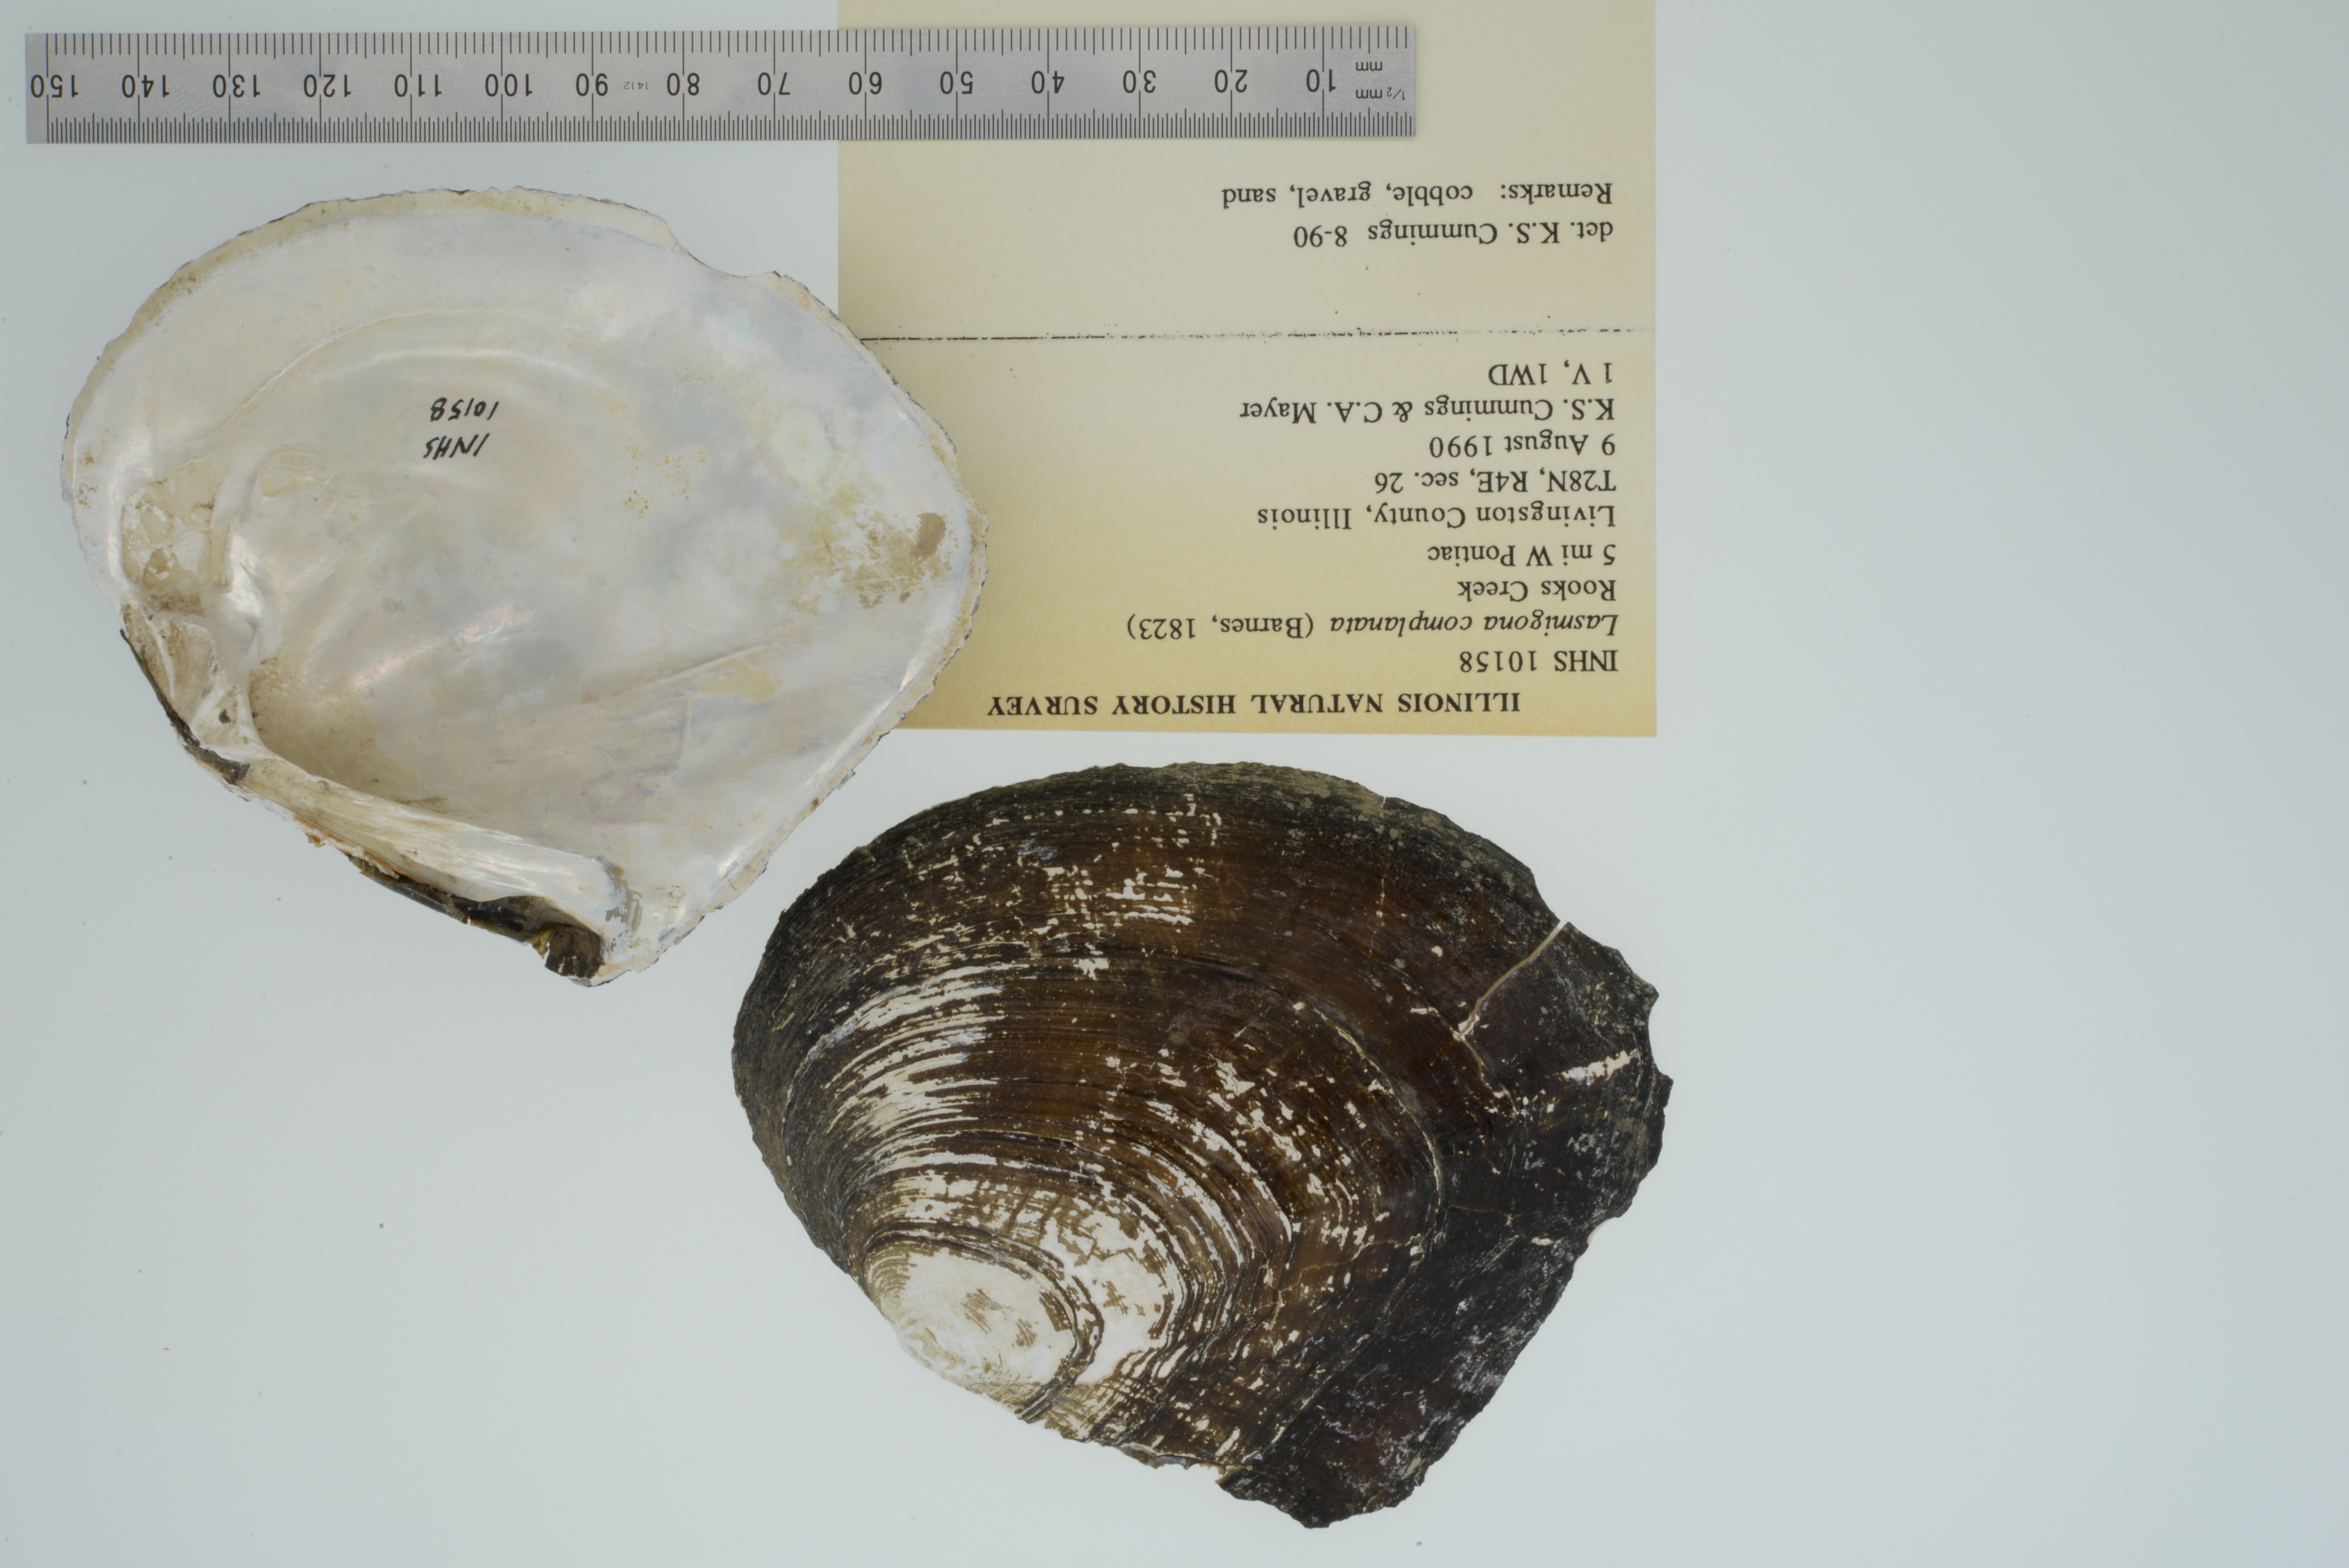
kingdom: Animalia
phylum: Mollusca
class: Bivalvia
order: Unionida
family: Unionidae
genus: Lasmigona
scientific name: Lasmigona complanata
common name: White heelsplitter
